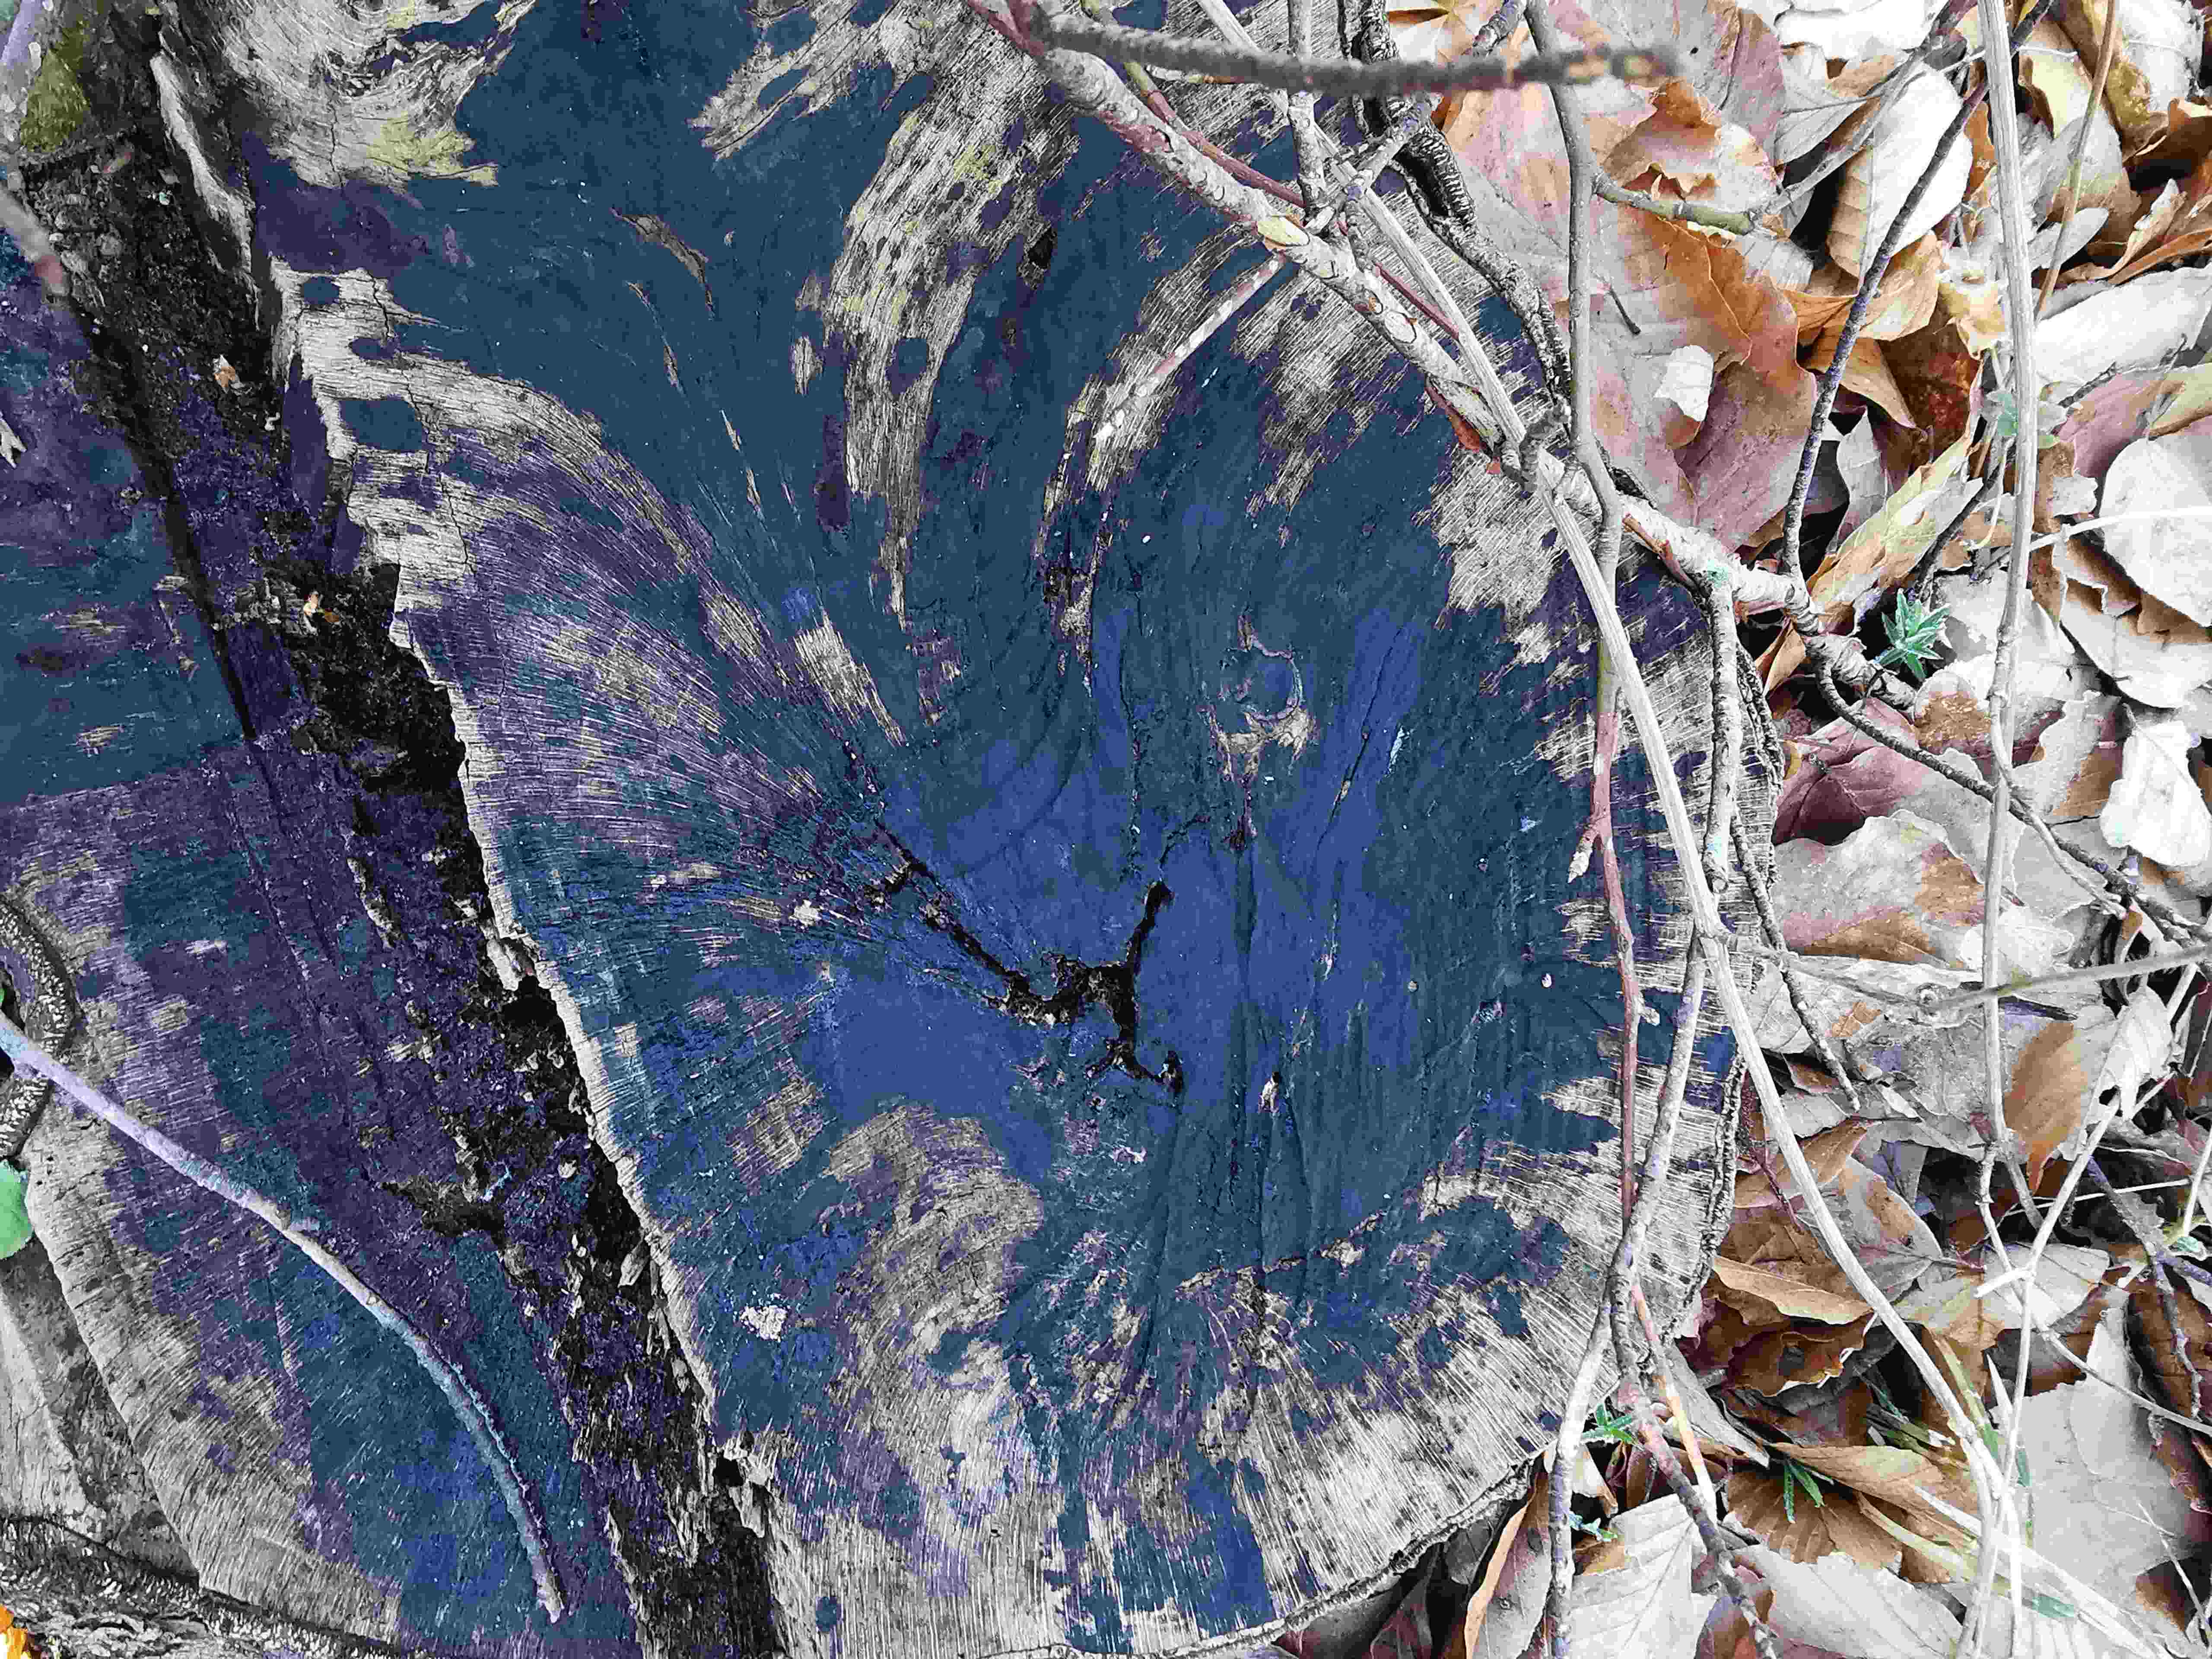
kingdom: Fungi
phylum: Ascomycota
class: Leotiomycetes
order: Helotiales
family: Helotiaceae
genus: Bispora
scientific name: Bispora pallescens
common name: måtte-snitskive
